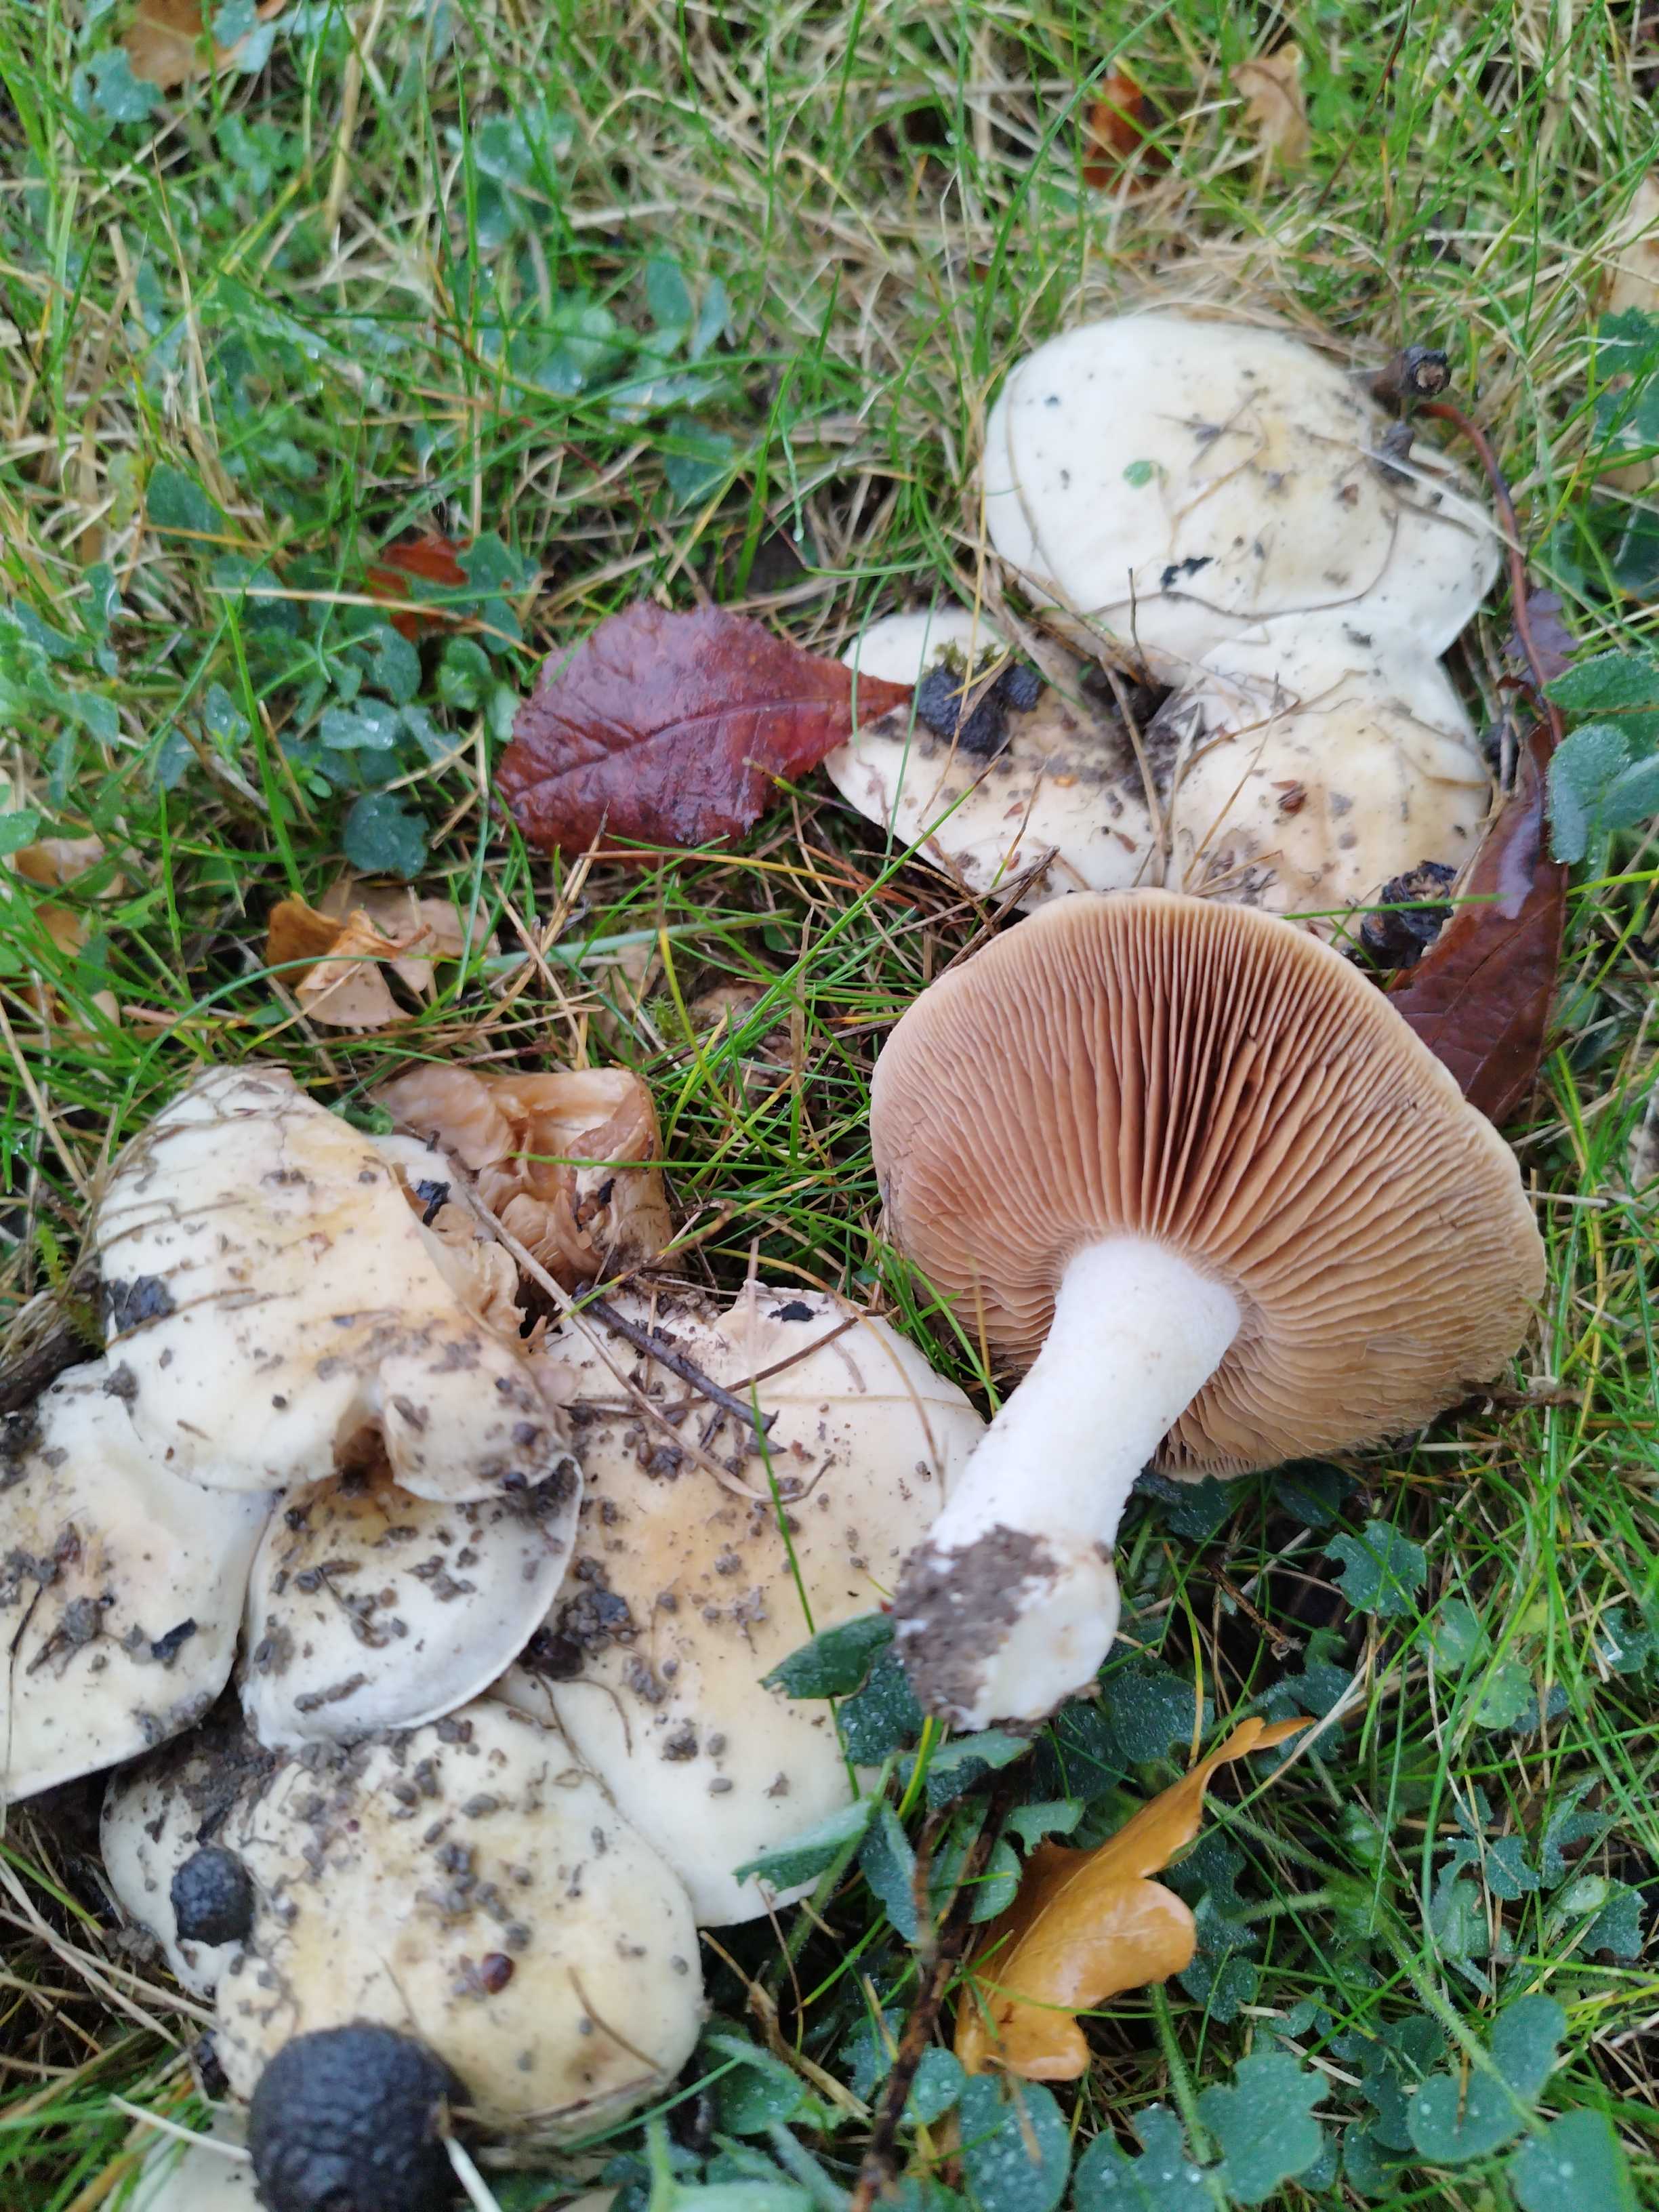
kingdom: Fungi
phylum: Basidiomycota
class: Agaricomycetes
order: Agaricales
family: Hymenogastraceae
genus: Hebeloma
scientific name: Hebeloma crustuliniforme
